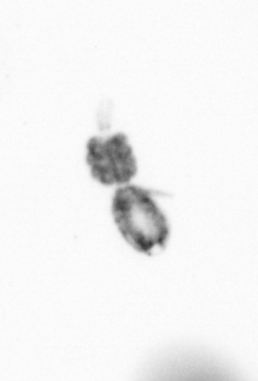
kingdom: Animalia
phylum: Arthropoda
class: Copepoda
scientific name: Copepoda
